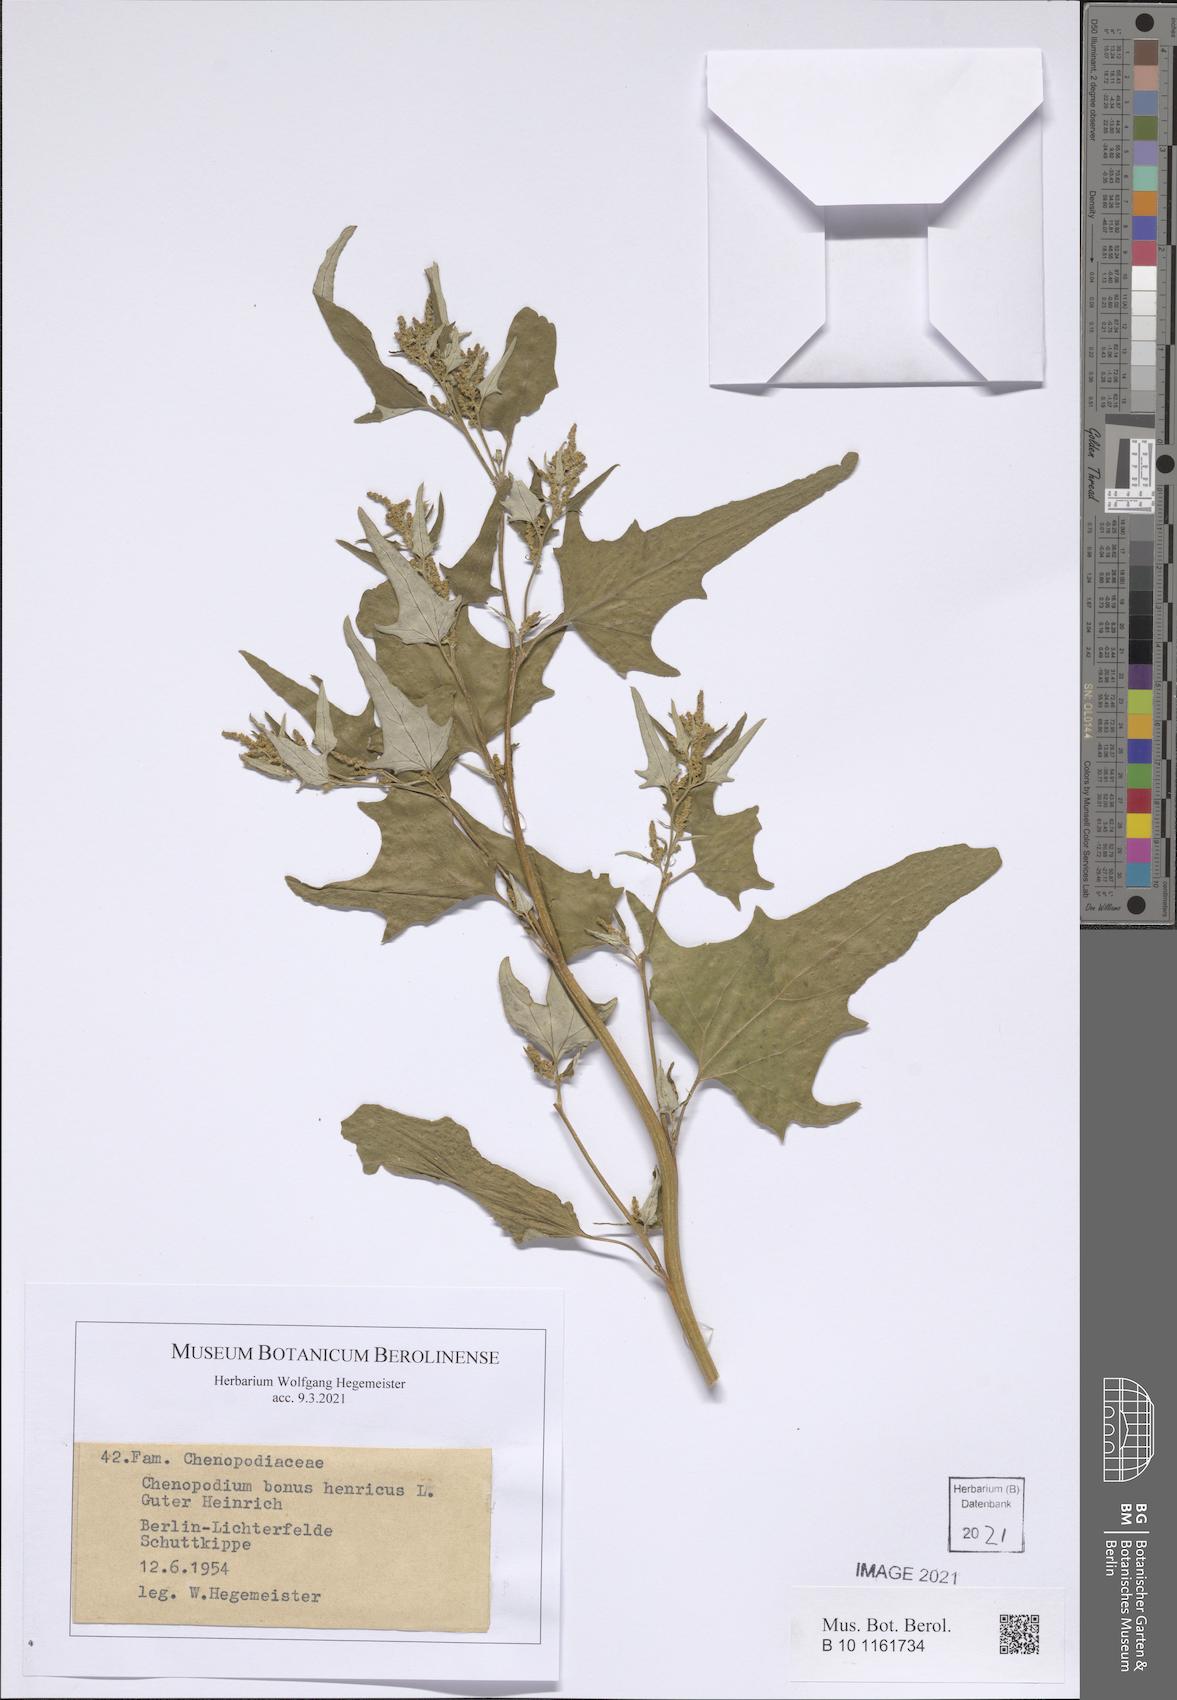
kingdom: Plantae
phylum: Tracheophyta
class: Magnoliopsida
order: Caryophyllales
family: Amaranthaceae
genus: Blitum
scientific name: Blitum bonus-henricus
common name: Good king henry
